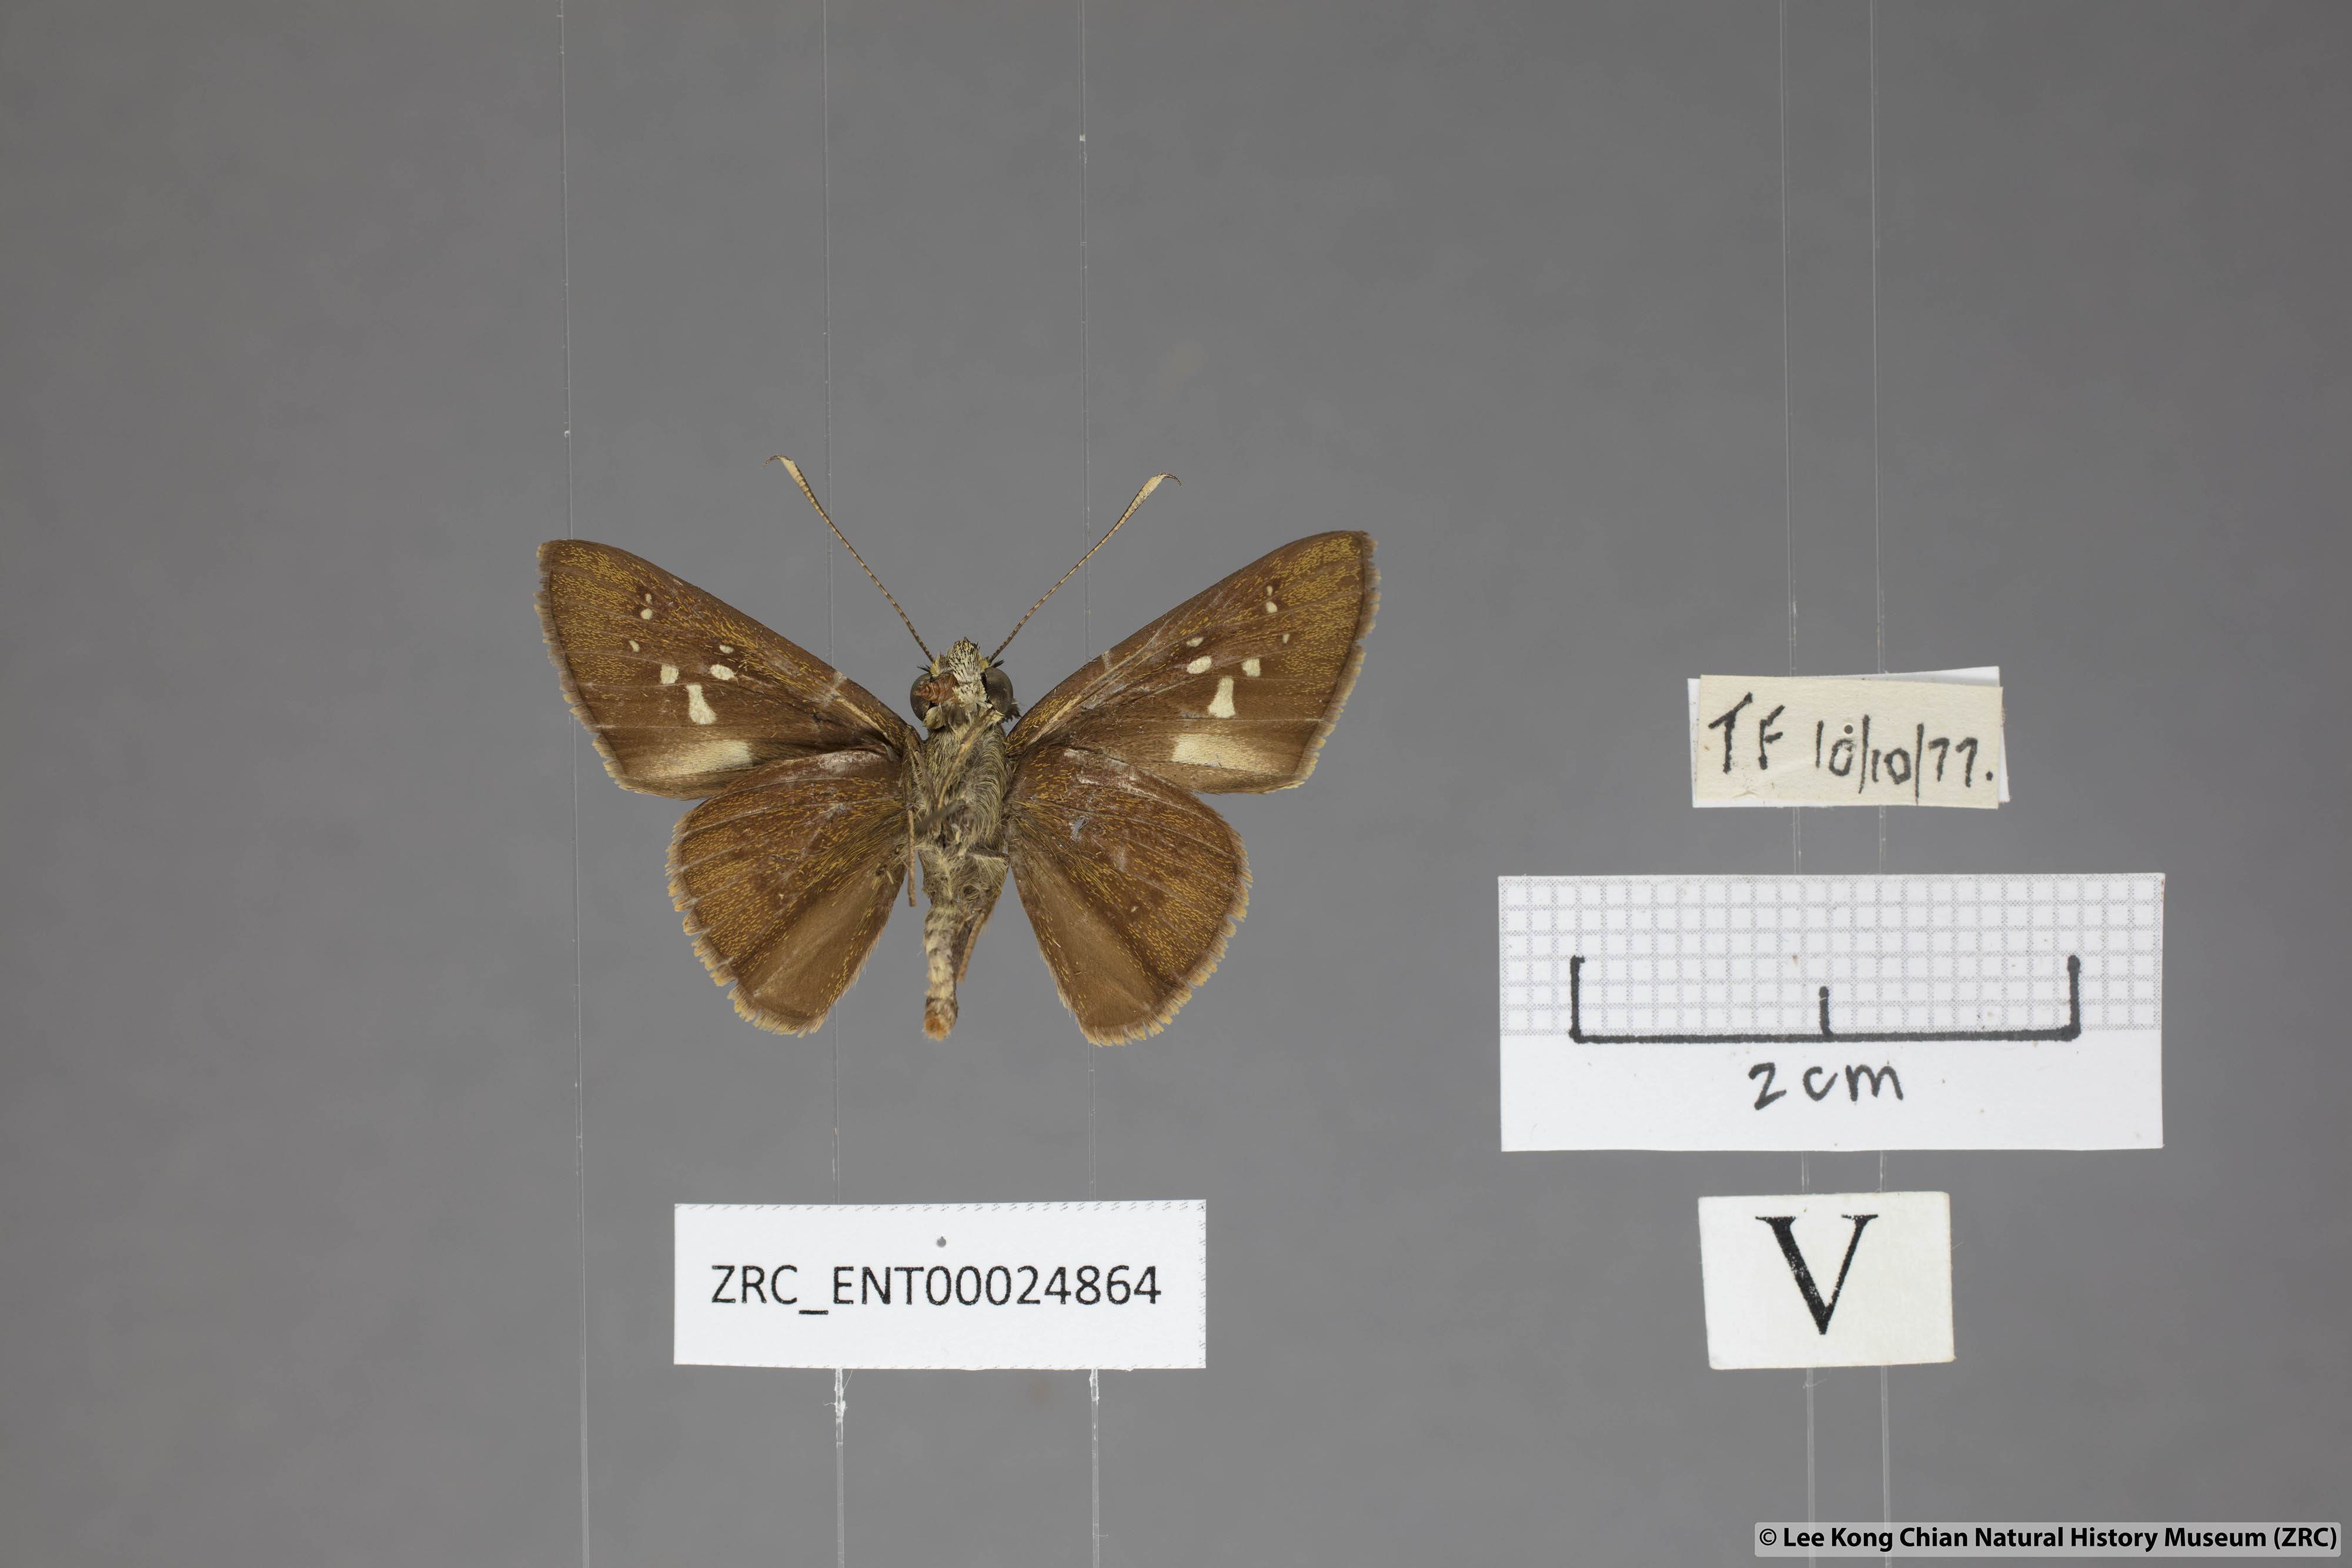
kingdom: Animalia
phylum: Arthropoda
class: Insecta
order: Lepidoptera
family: Hesperiidae
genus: Isma
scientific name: Isma miosticta
